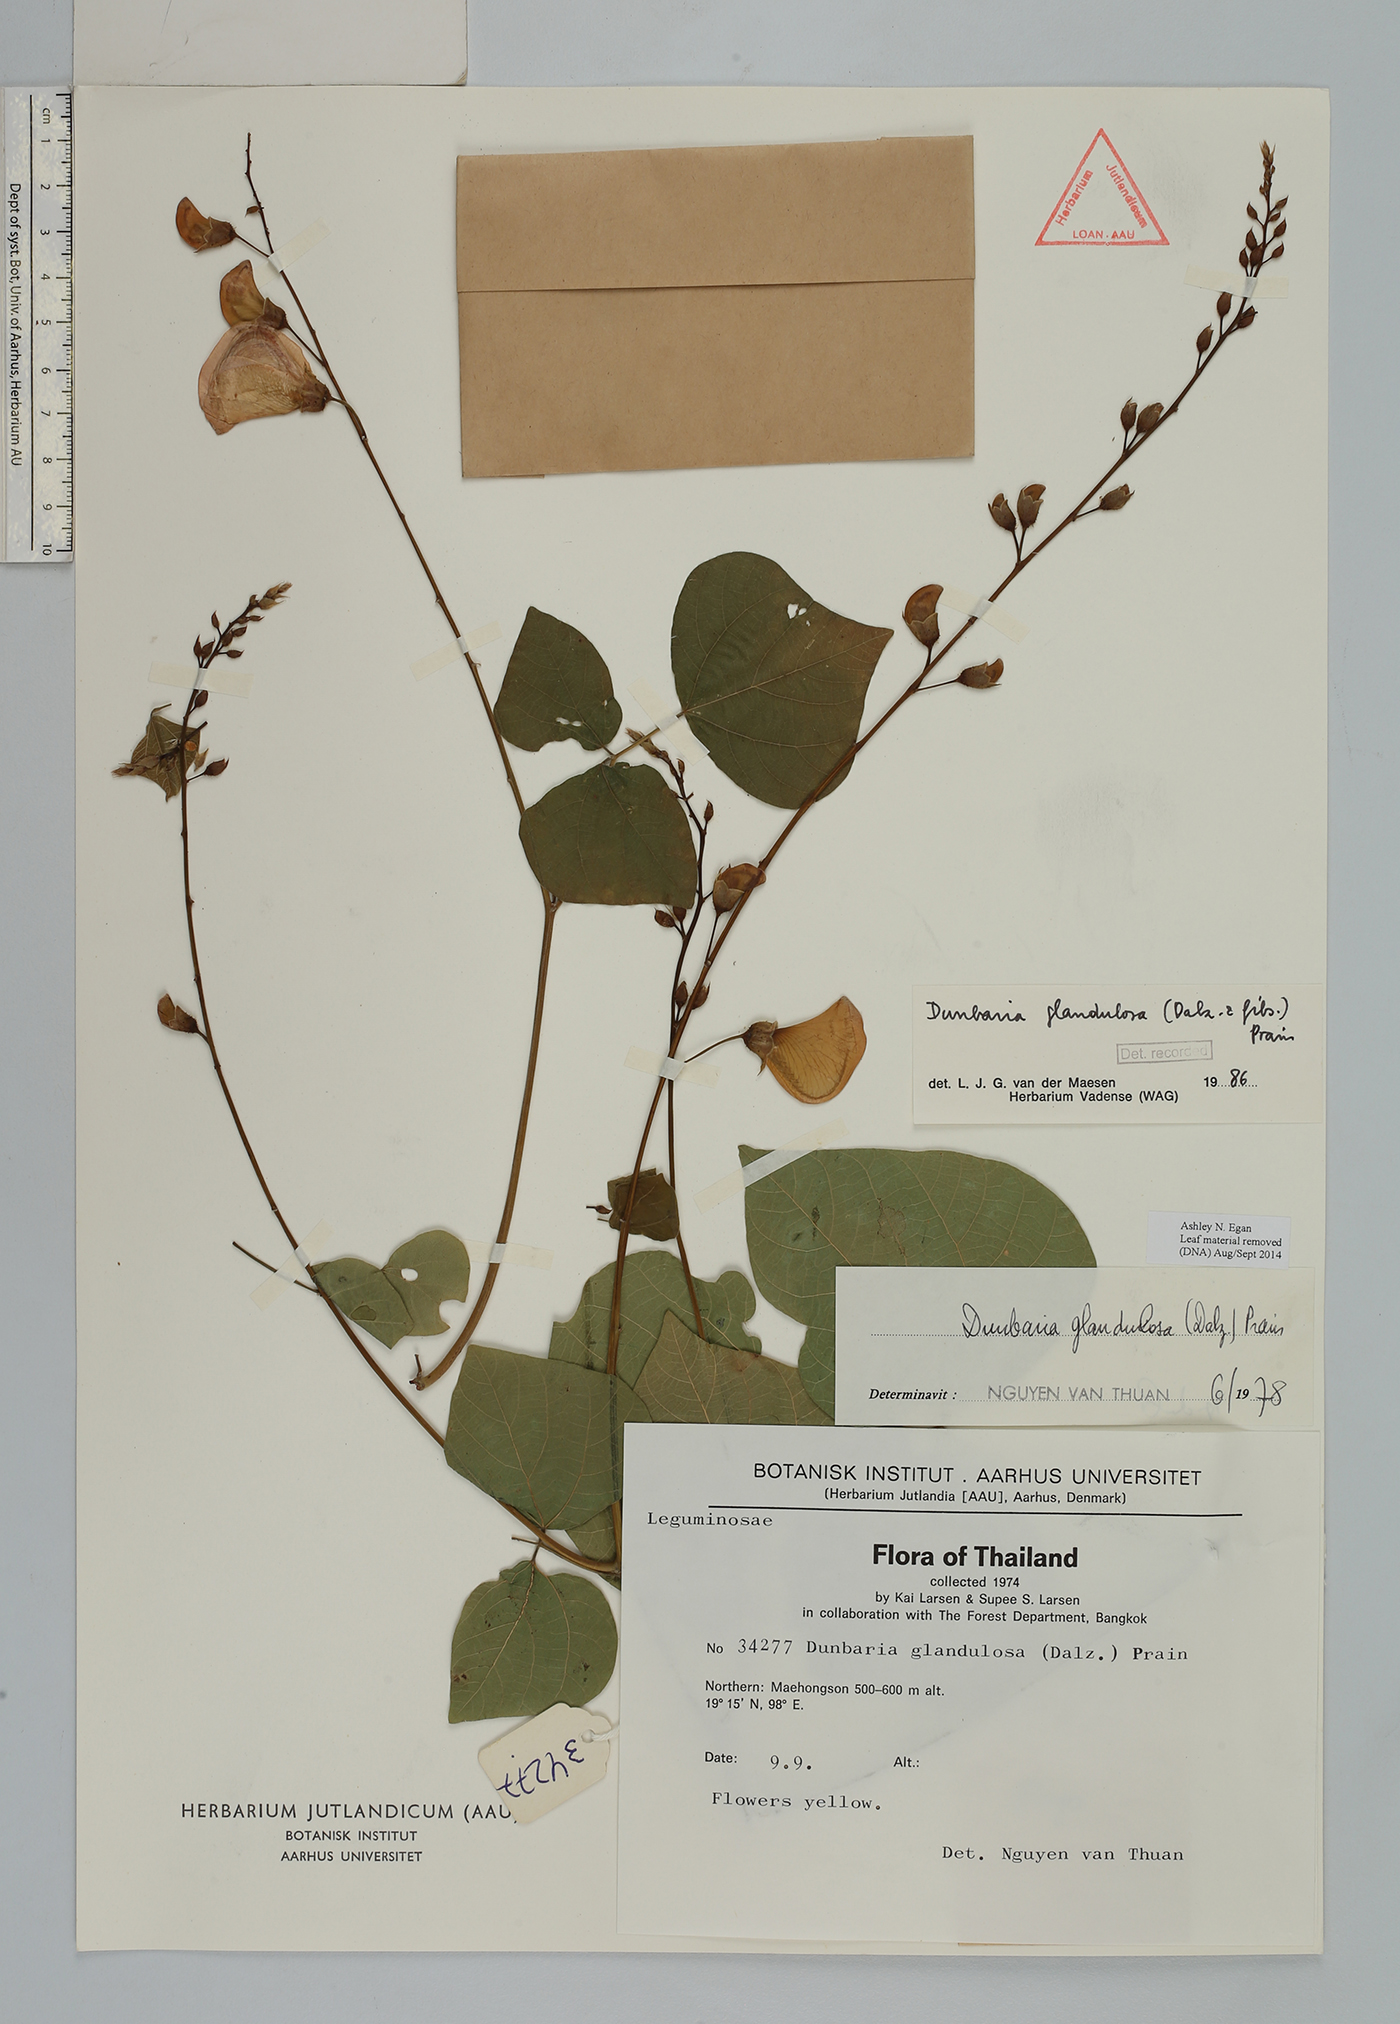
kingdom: Plantae
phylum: Tracheophyta
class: Magnoliopsida
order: Fabales
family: Fabaceae
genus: Dunbaria
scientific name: Dunbaria glandulosa
